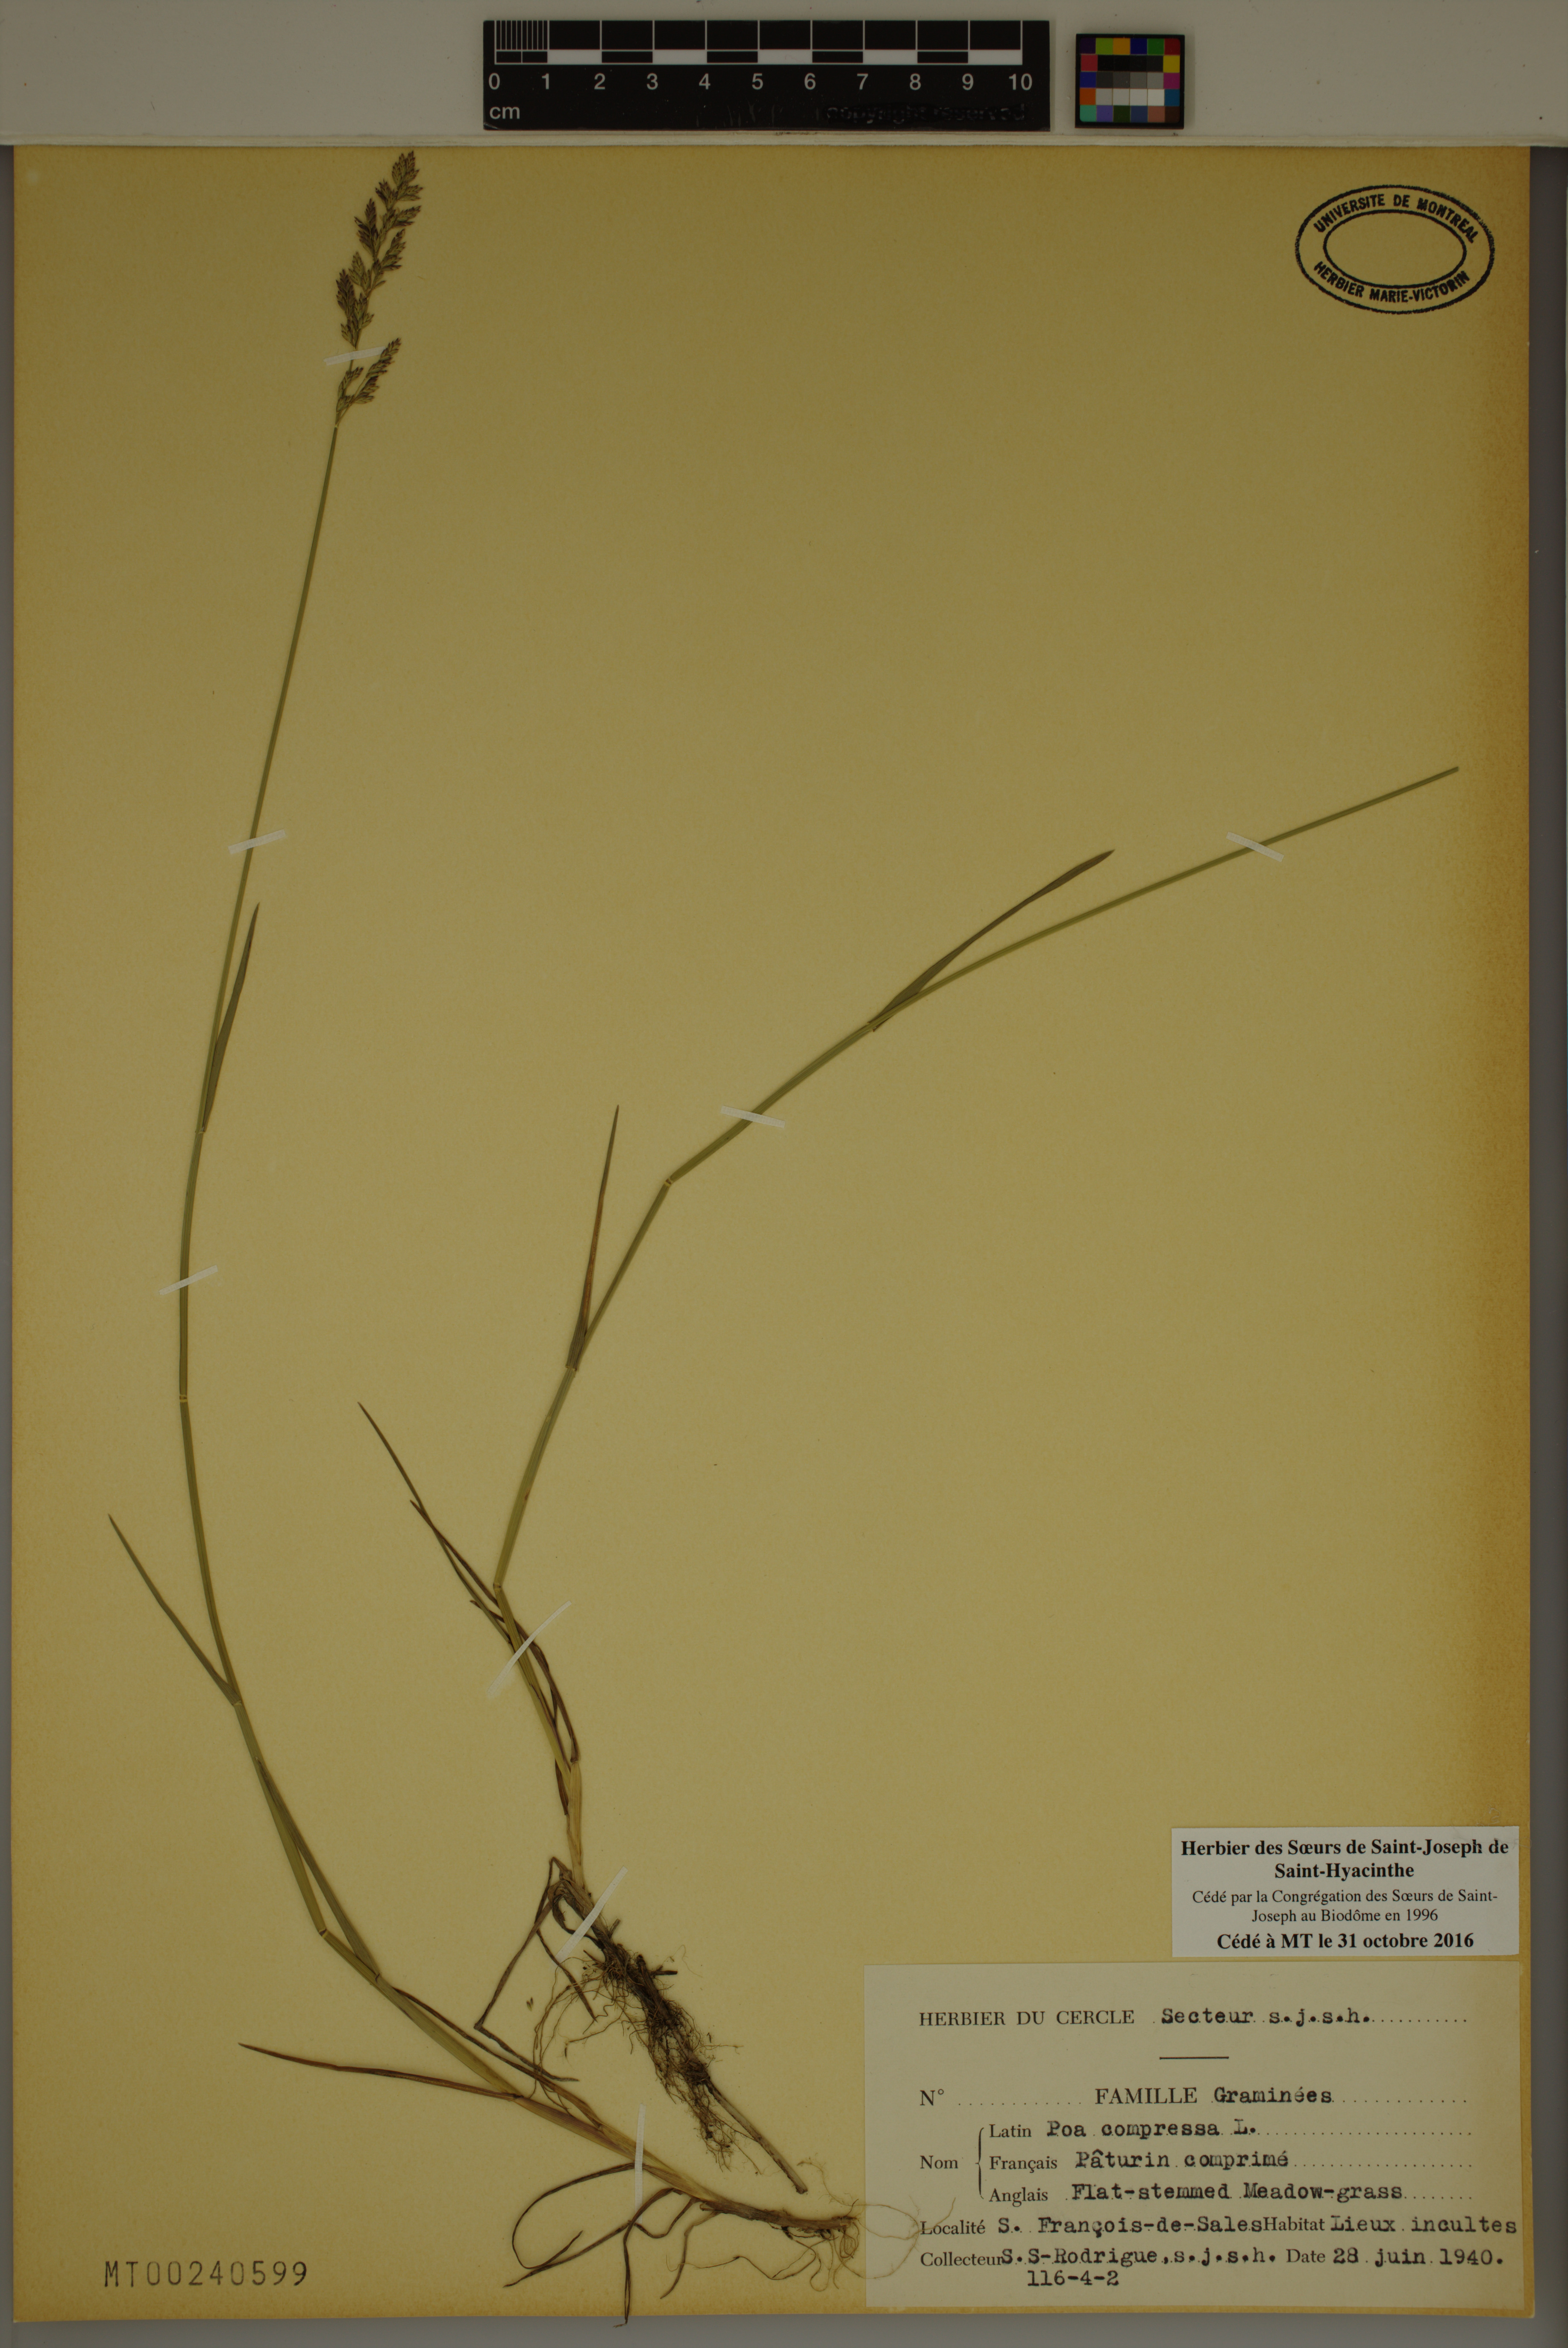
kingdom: Plantae
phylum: Tracheophyta
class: Liliopsida
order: Poales
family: Poaceae
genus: Poa
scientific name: Poa compressa
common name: Canada bluegrass
